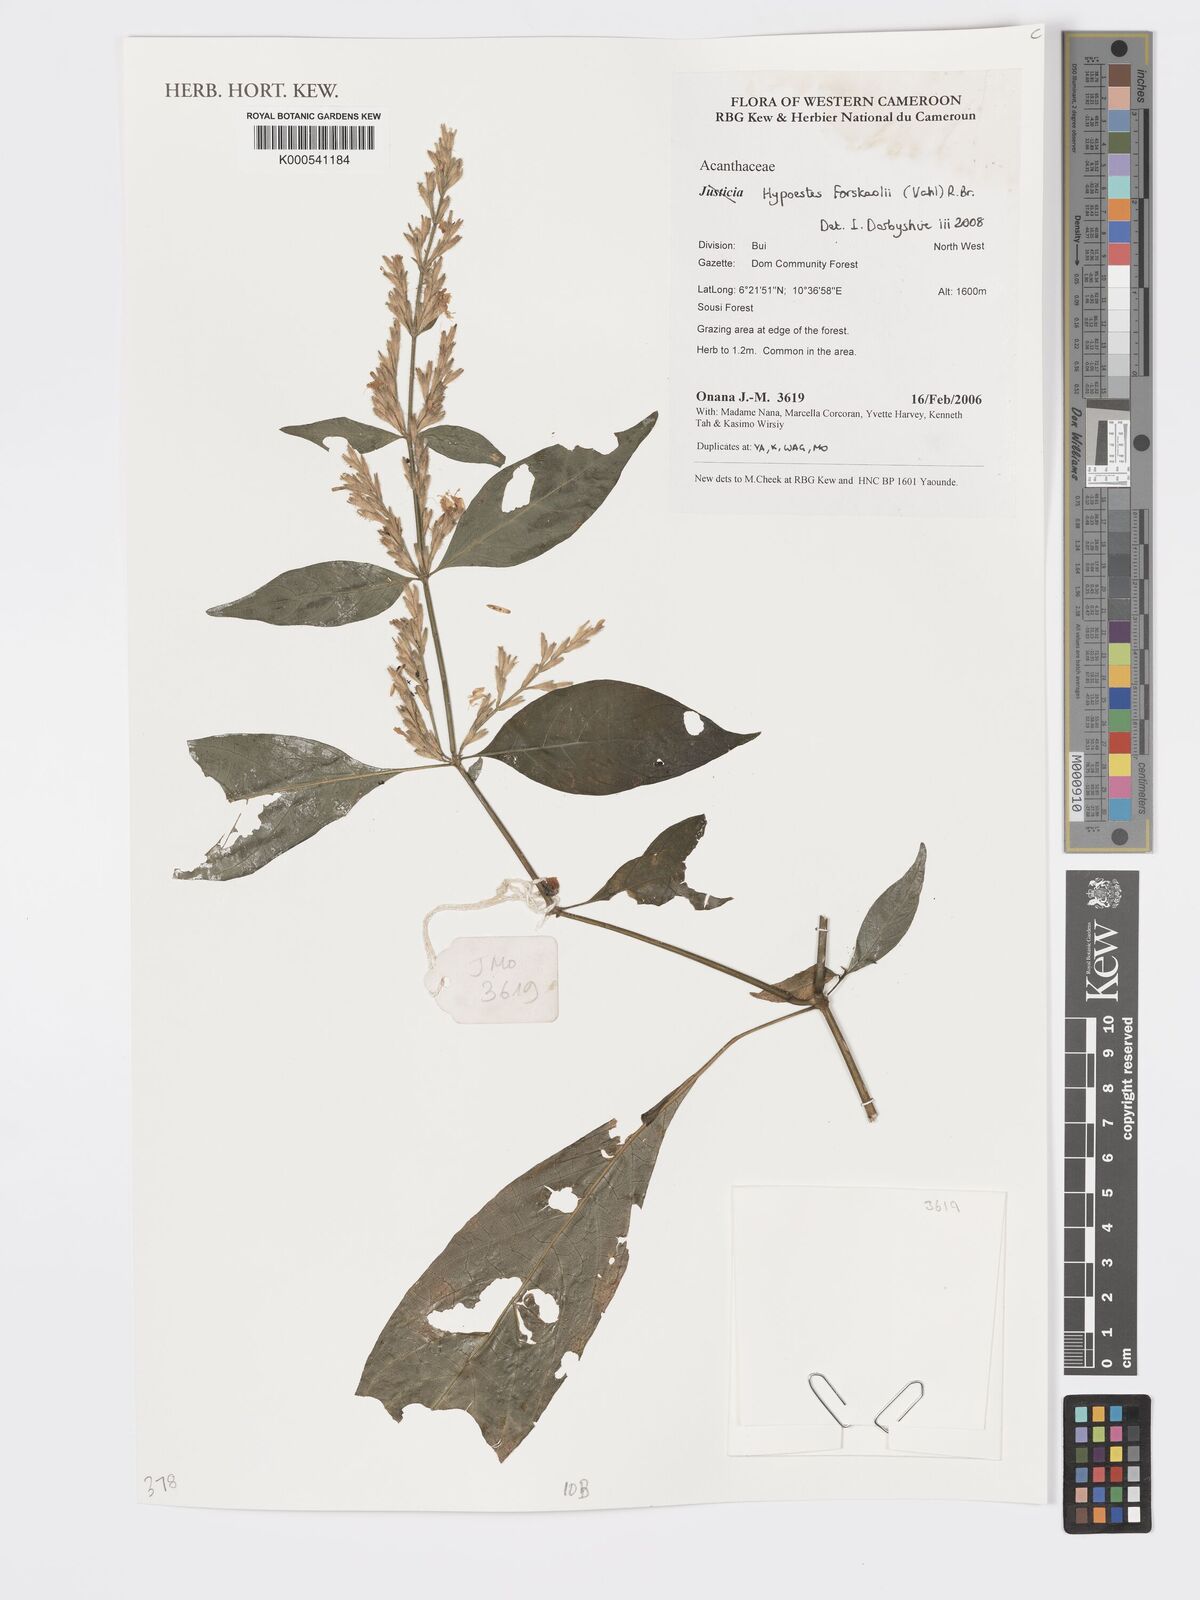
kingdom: Plantae
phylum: Tracheophyta
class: Magnoliopsida
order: Lamiales
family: Acanthaceae
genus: Hypoestes
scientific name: Hypoestes forskaolii
